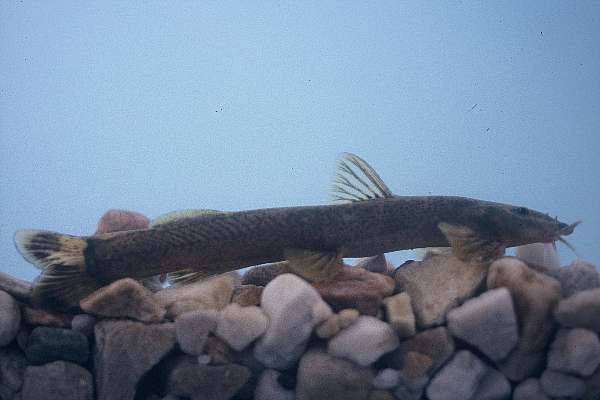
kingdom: Animalia
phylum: Chordata
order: Siluriformes
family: Schilbeidae
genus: Schilbe
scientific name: Schilbe intermedius
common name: Silver catfish
